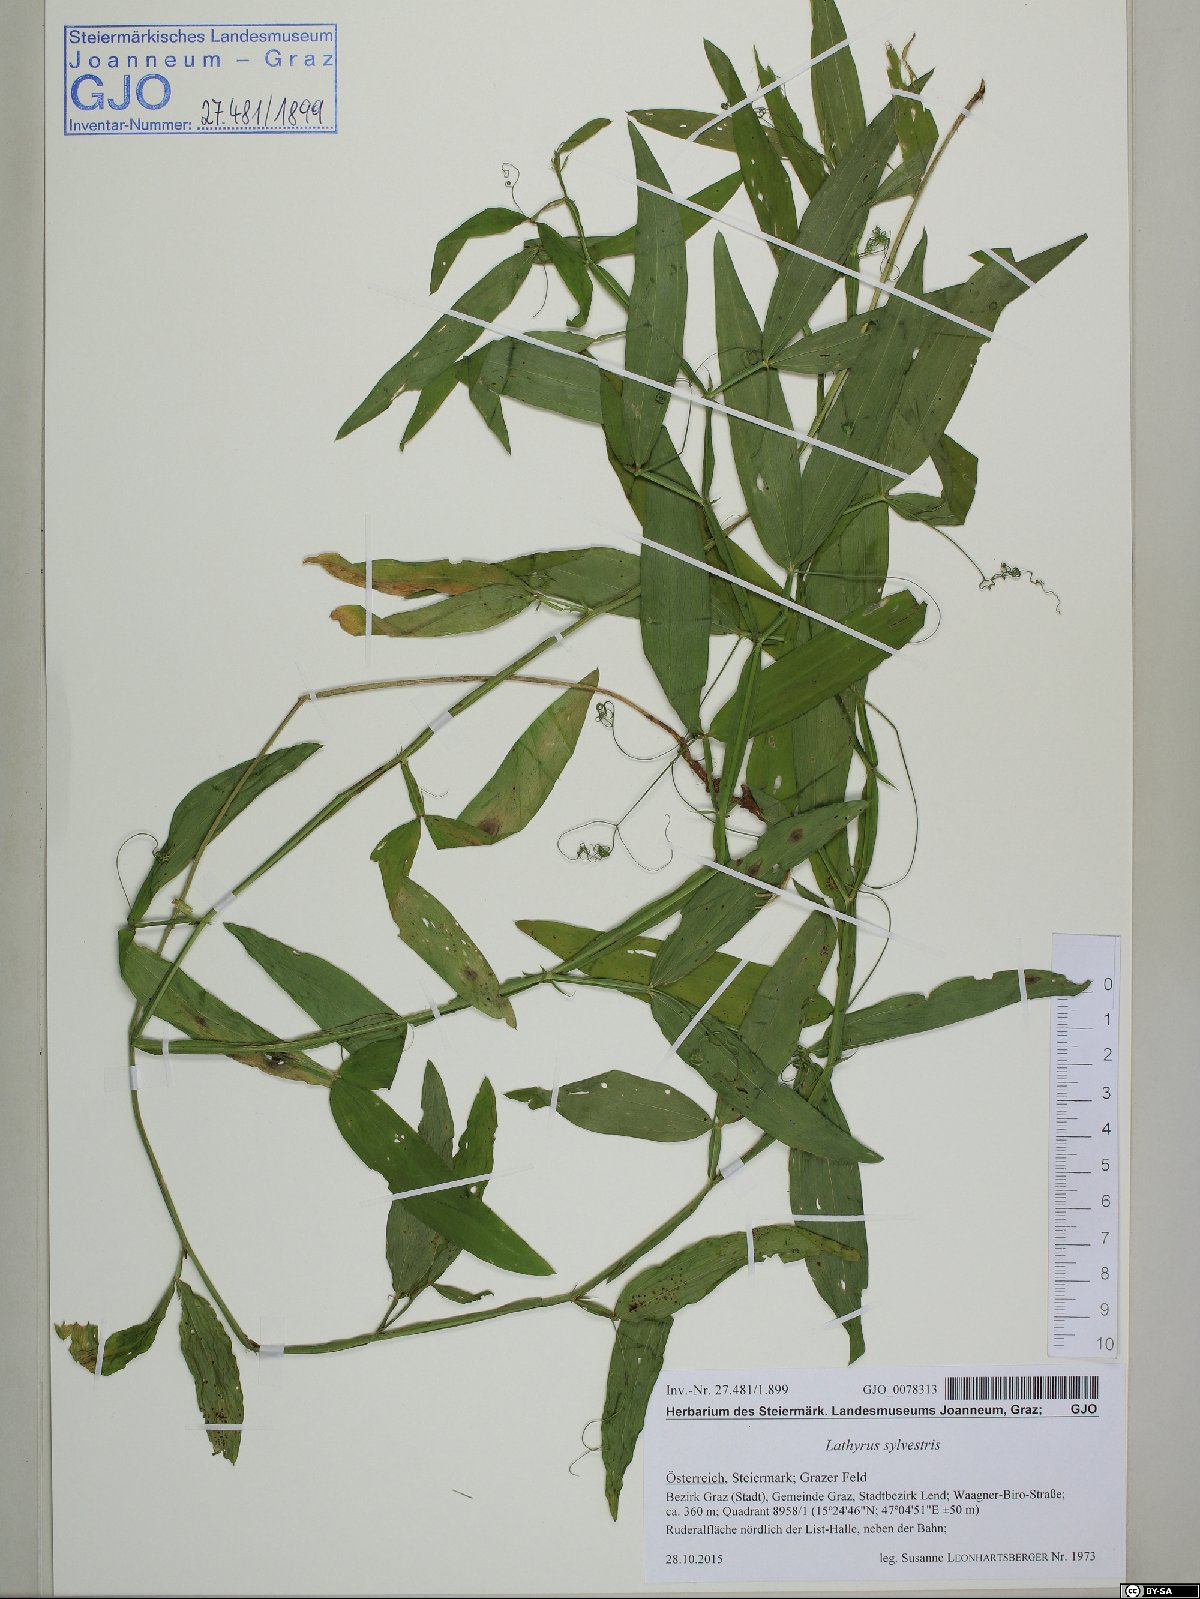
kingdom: Plantae
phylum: Tracheophyta
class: Magnoliopsida
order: Fabales
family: Fabaceae
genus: Lathyrus
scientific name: Lathyrus sylvestris
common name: Flat pea
